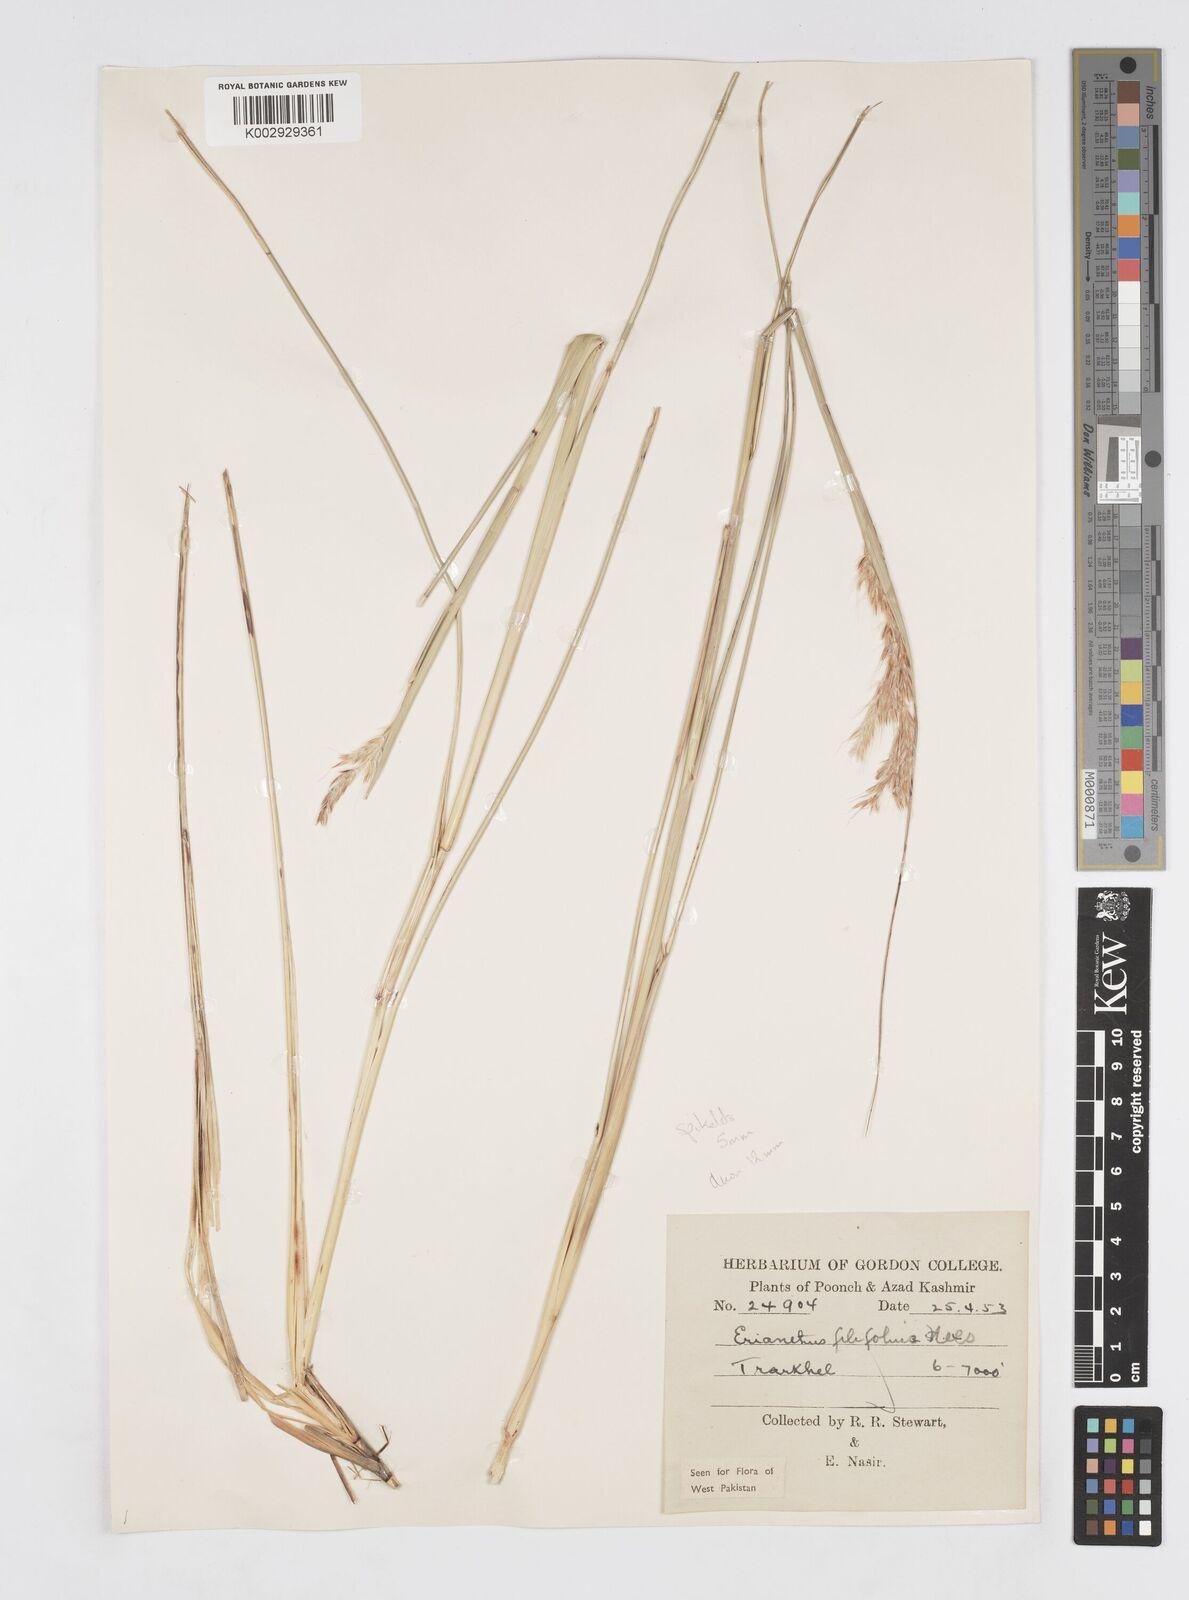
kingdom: Plantae
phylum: Tracheophyta
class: Liliopsida
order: Poales
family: Poaceae
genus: Saccharum
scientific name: Saccharum filifolium
